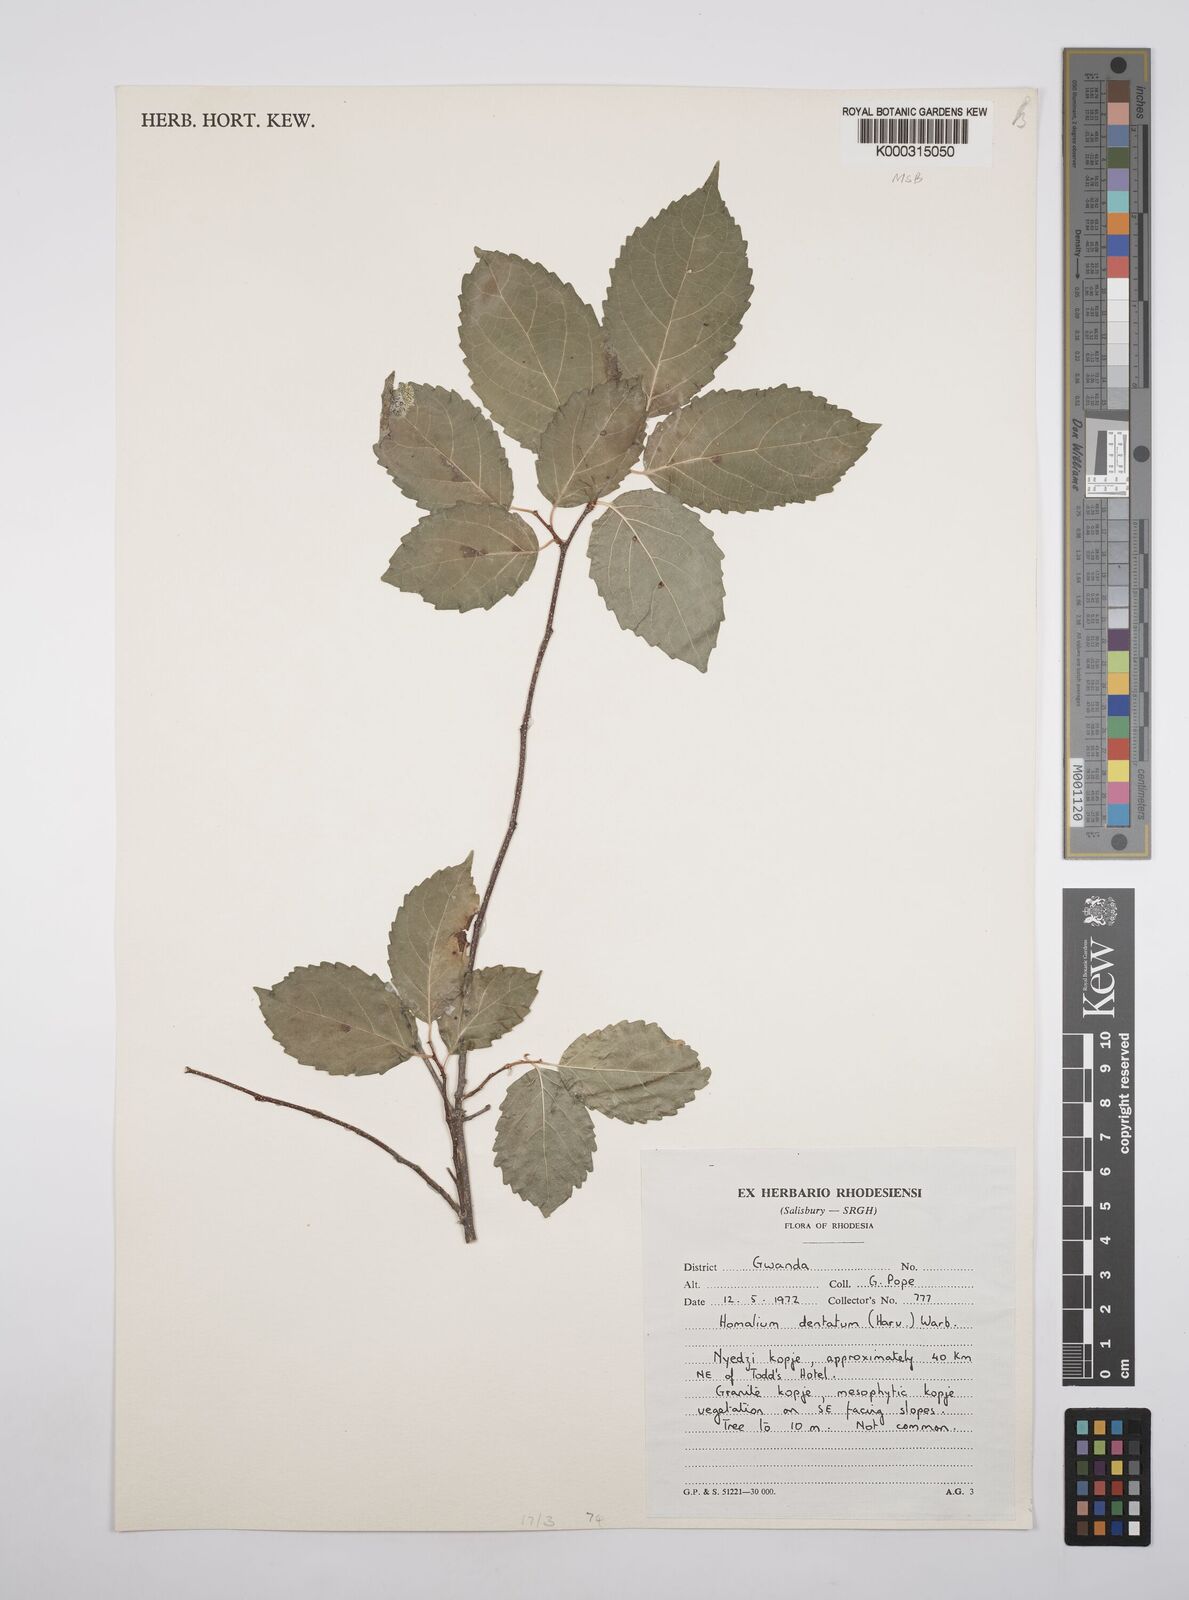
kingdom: Plantae
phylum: Tracheophyta
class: Magnoliopsida
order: Malpighiales
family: Salicaceae
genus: Homalium
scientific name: Homalium dentatum
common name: Brown ironwood
